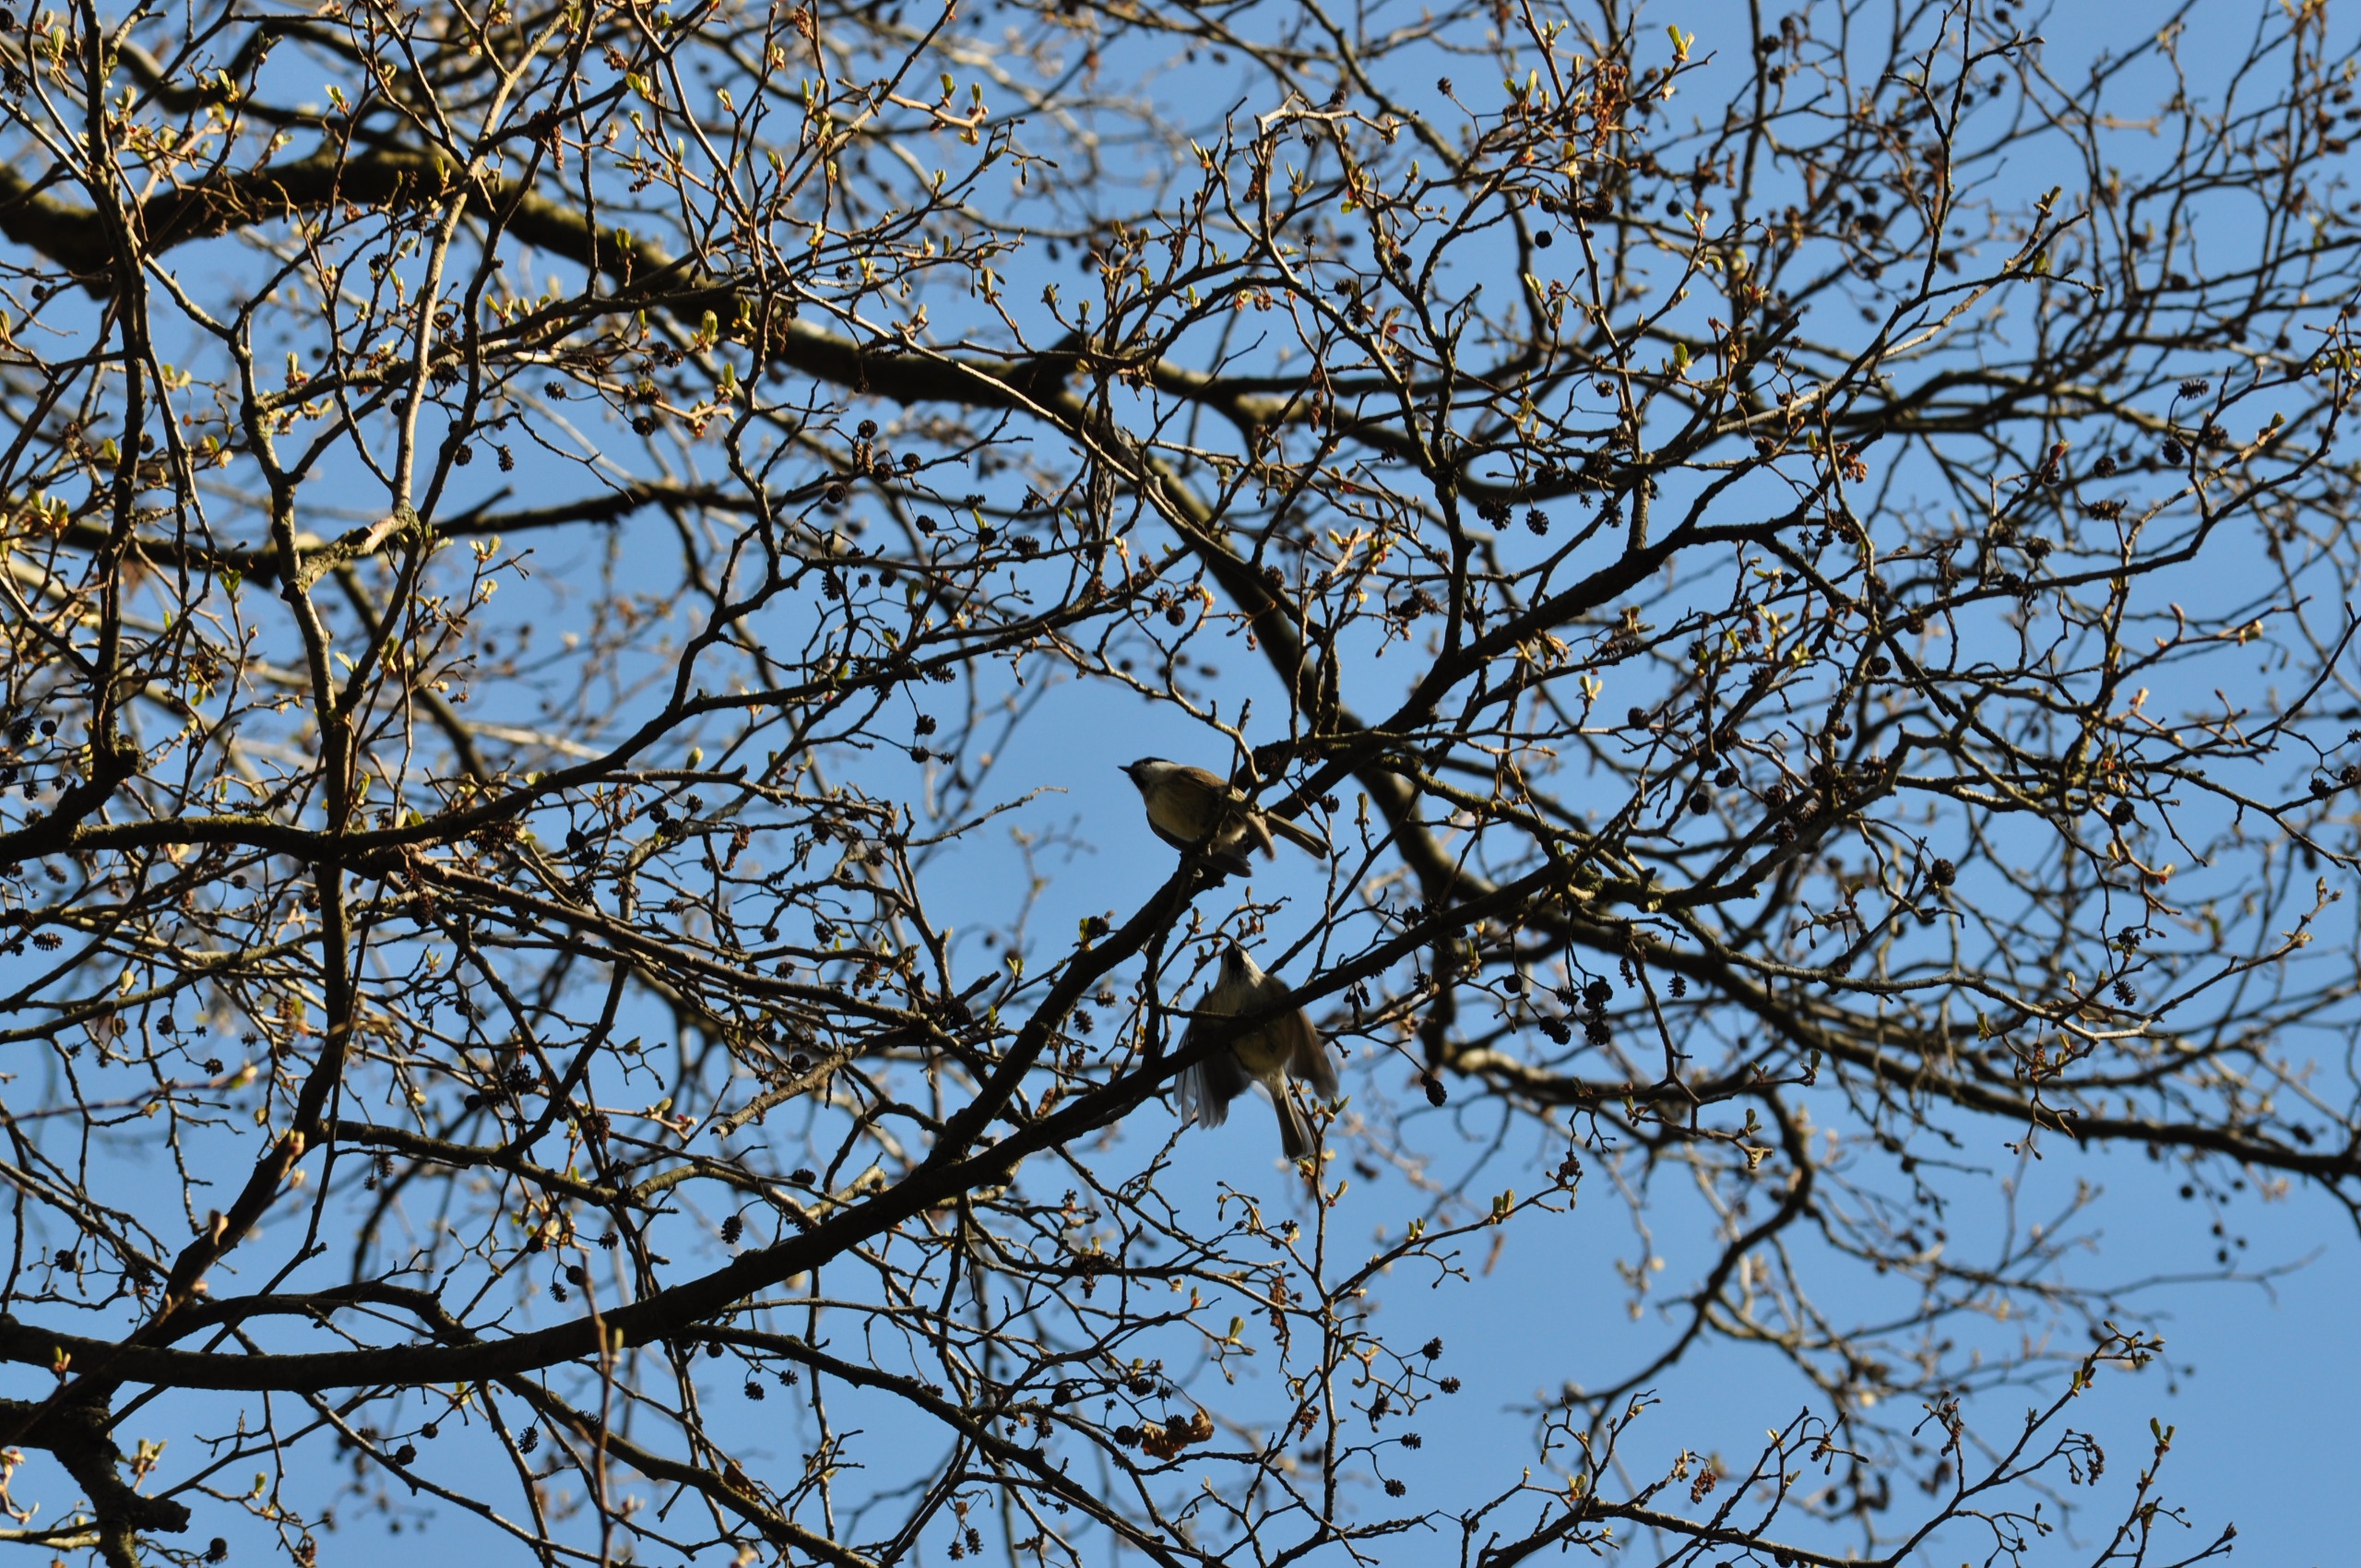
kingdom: Animalia
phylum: Chordata
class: Aves
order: Passeriformes
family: Paridae
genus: Poecile
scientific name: Poecile palustris
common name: Sumpmejse
